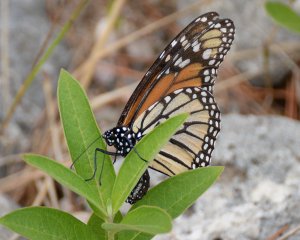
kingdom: Animalia
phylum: Arthropoda
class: Insecta
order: Lepidoptera
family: Nymphalidae
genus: Danaus
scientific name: Danaus plexippus
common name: Monarch
